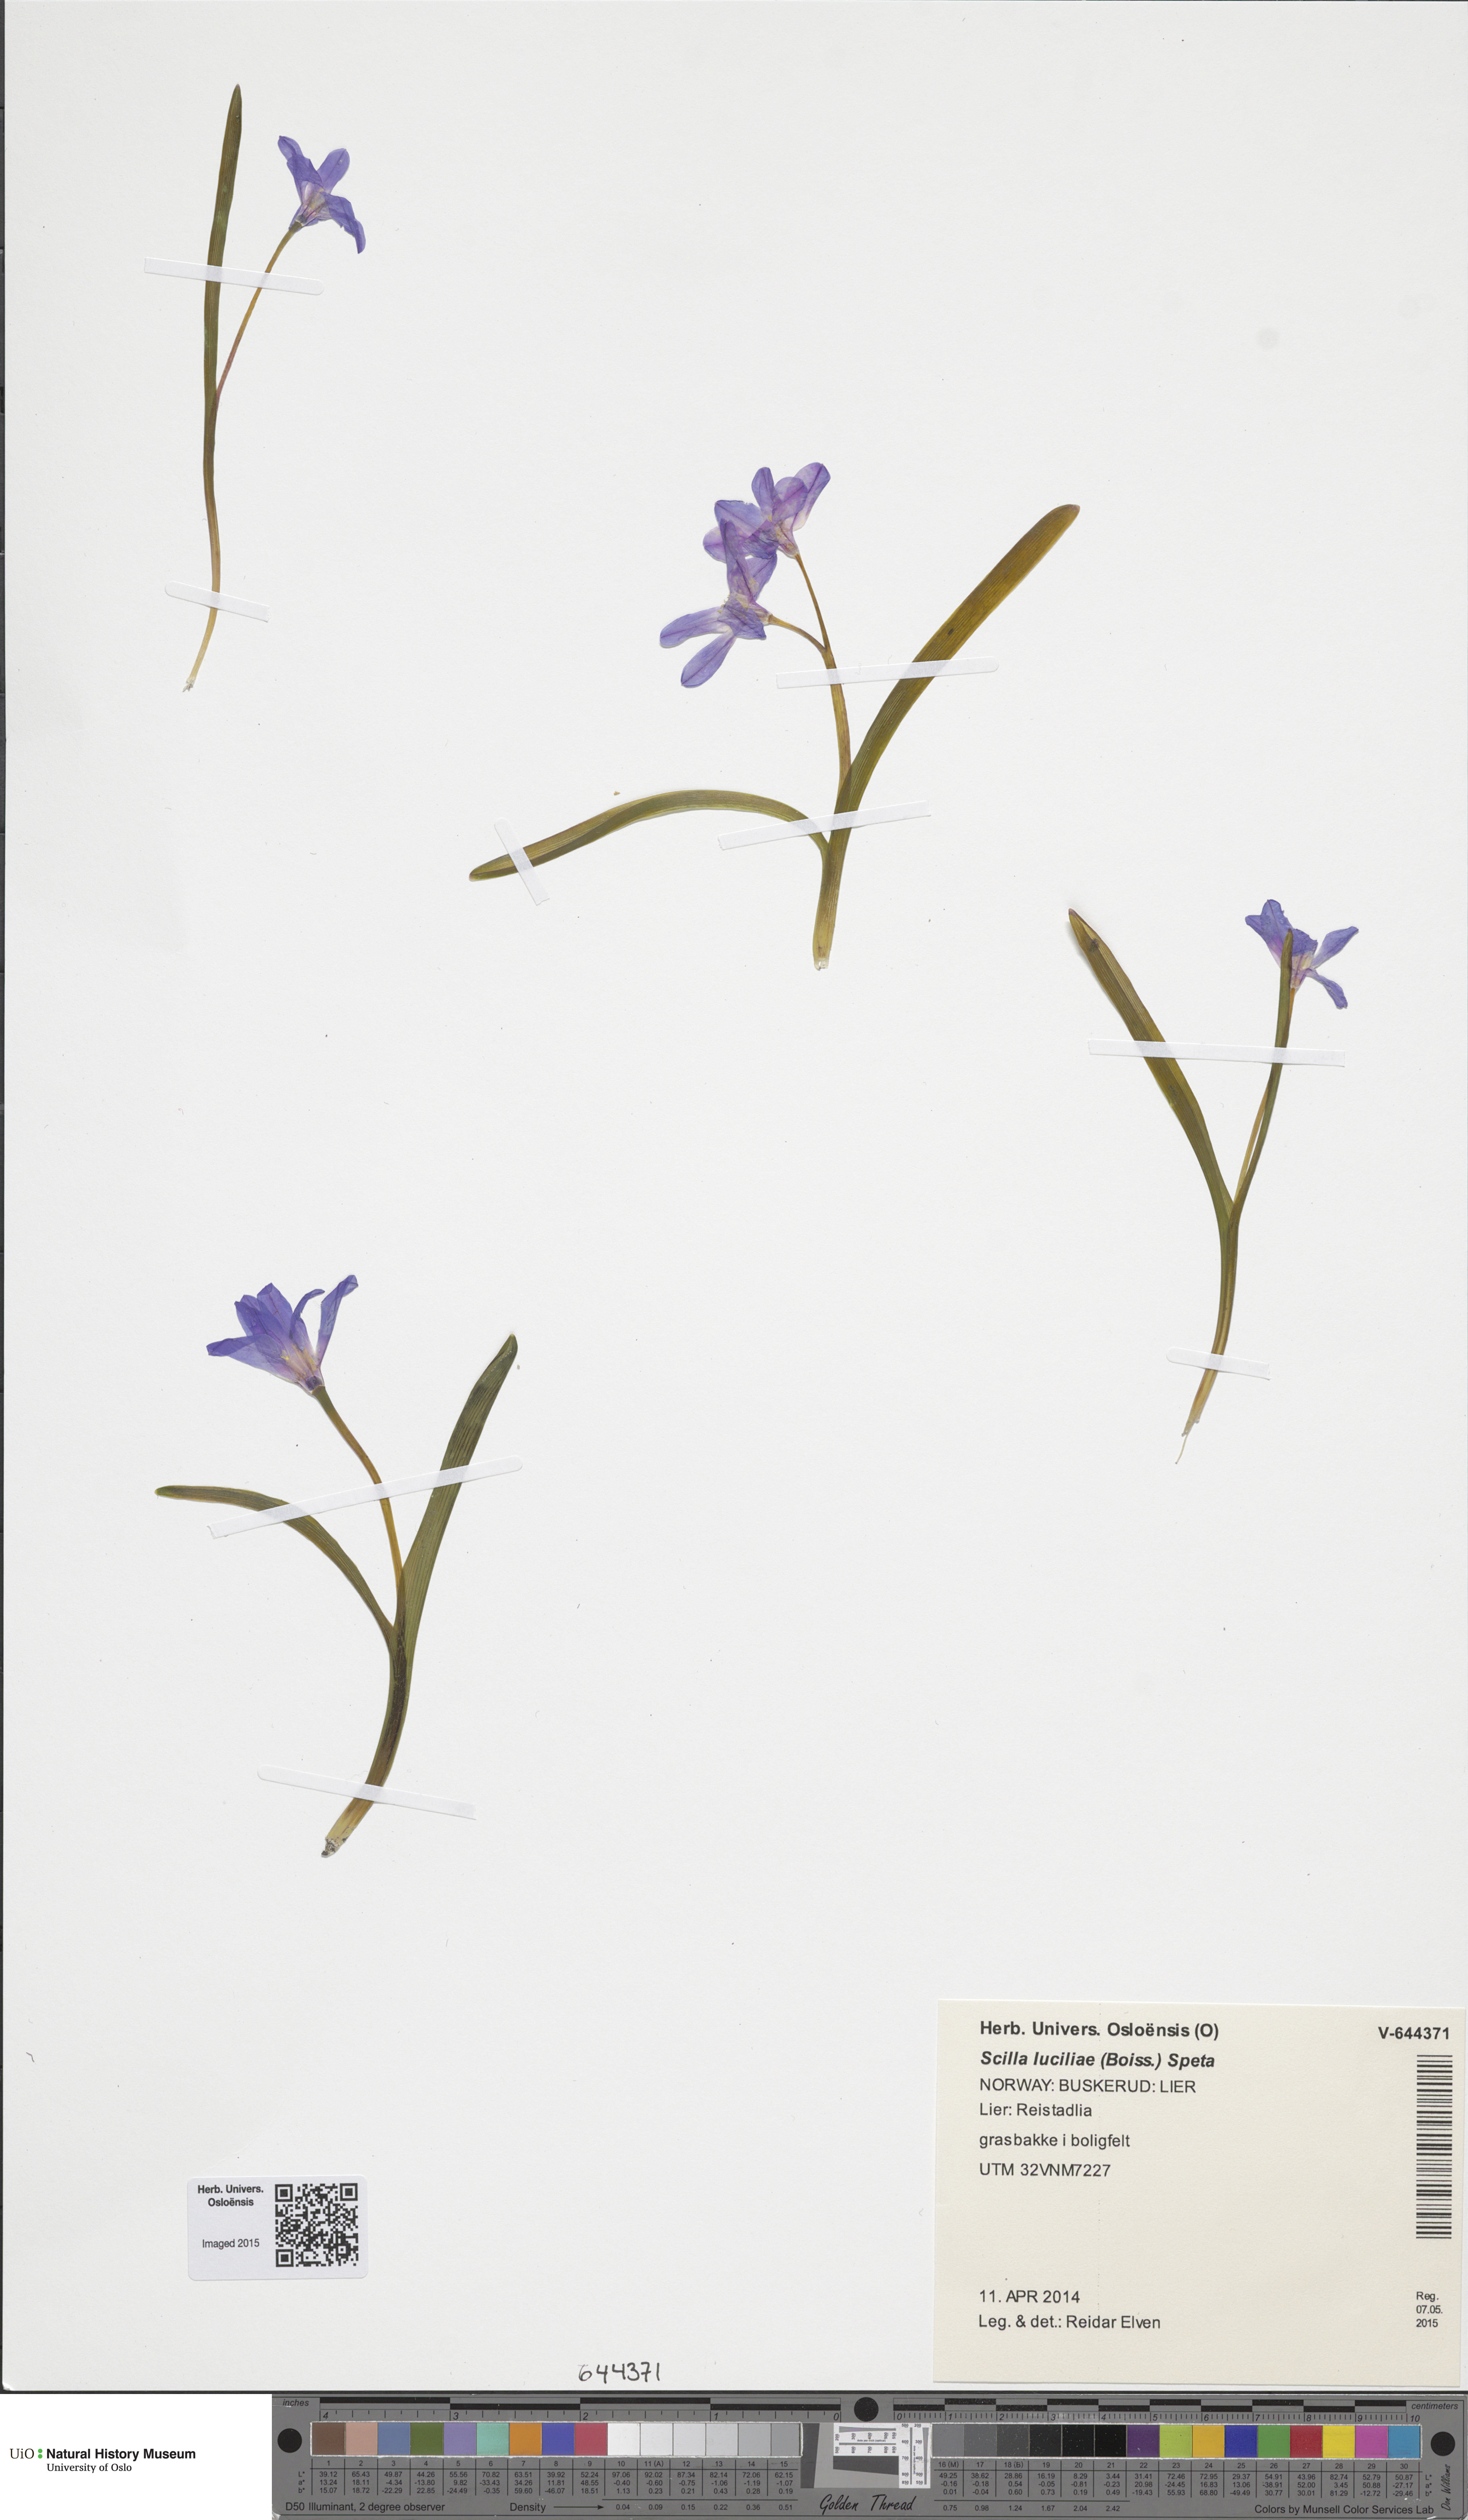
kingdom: Plantae
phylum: Tracheophyta
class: Liliopsida
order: Asparagales
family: Asparagaceae
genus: Scilla
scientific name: Scilla luciliae
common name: Boissier's glory-of-the-snow
